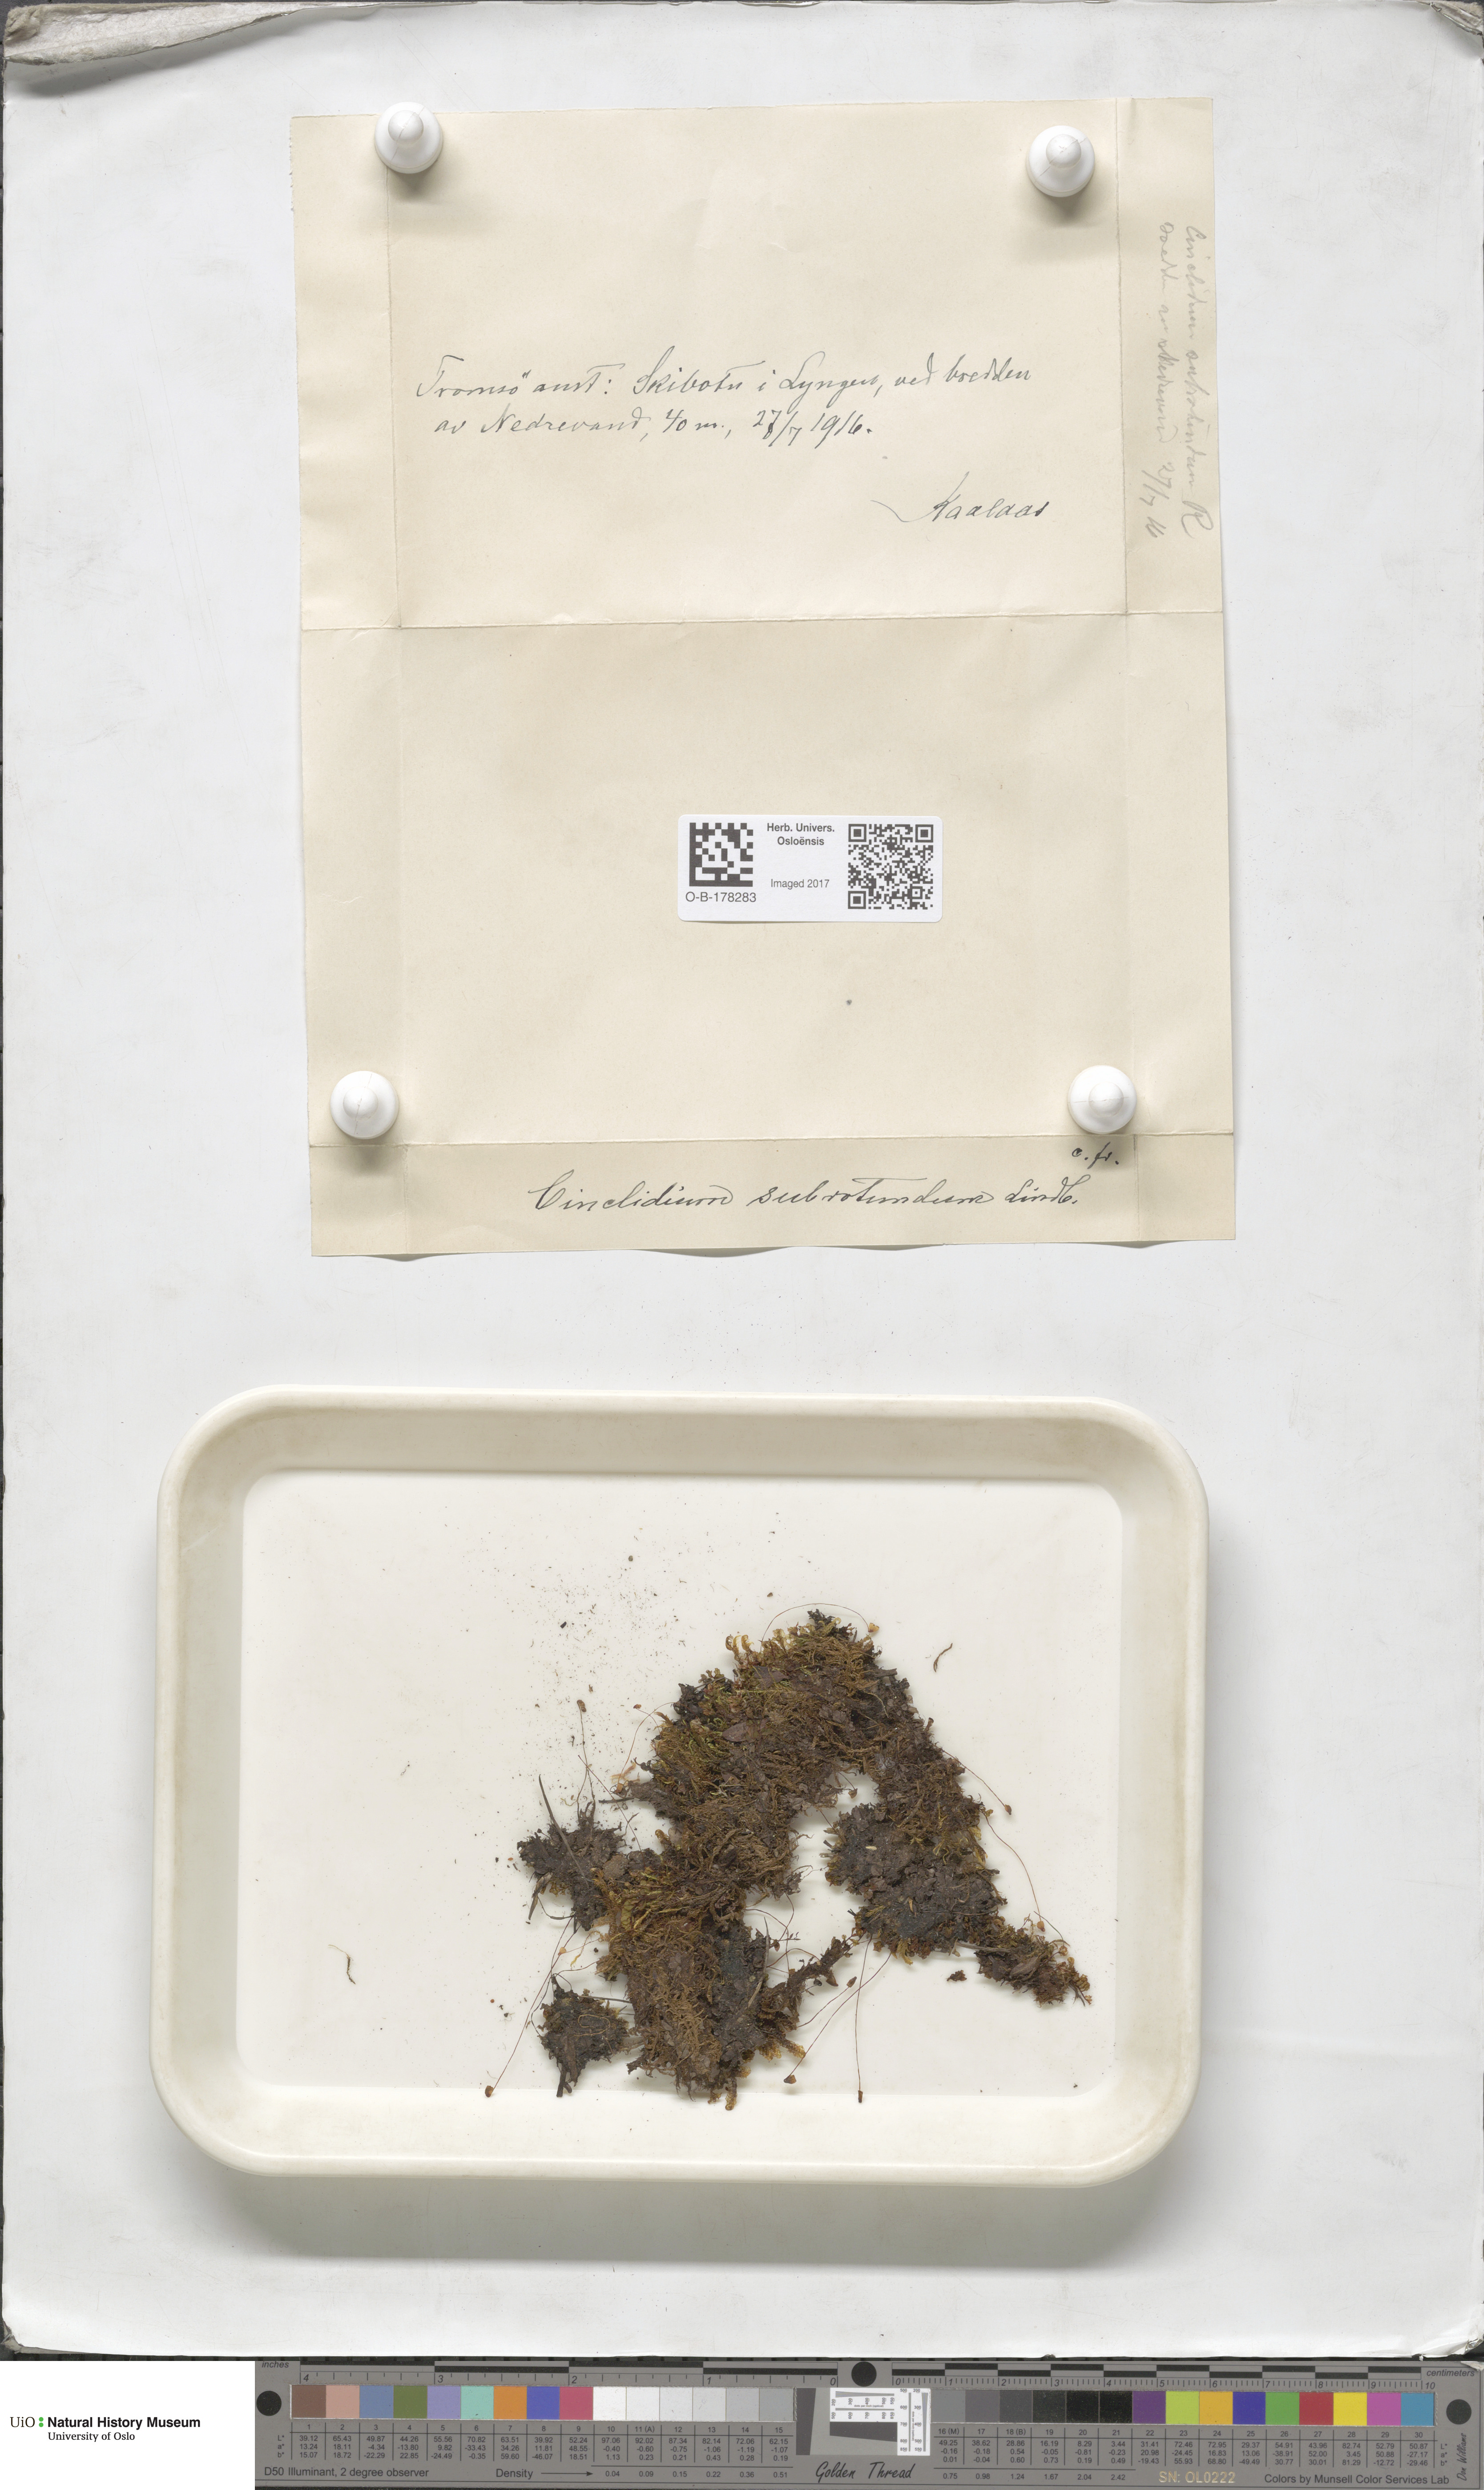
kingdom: Plantae
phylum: Bryophyta
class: Bryopsida
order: Bryales
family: Mniaceae
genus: Cinclidium
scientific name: Cinclidium subrotundum
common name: Ovate cupola moss
